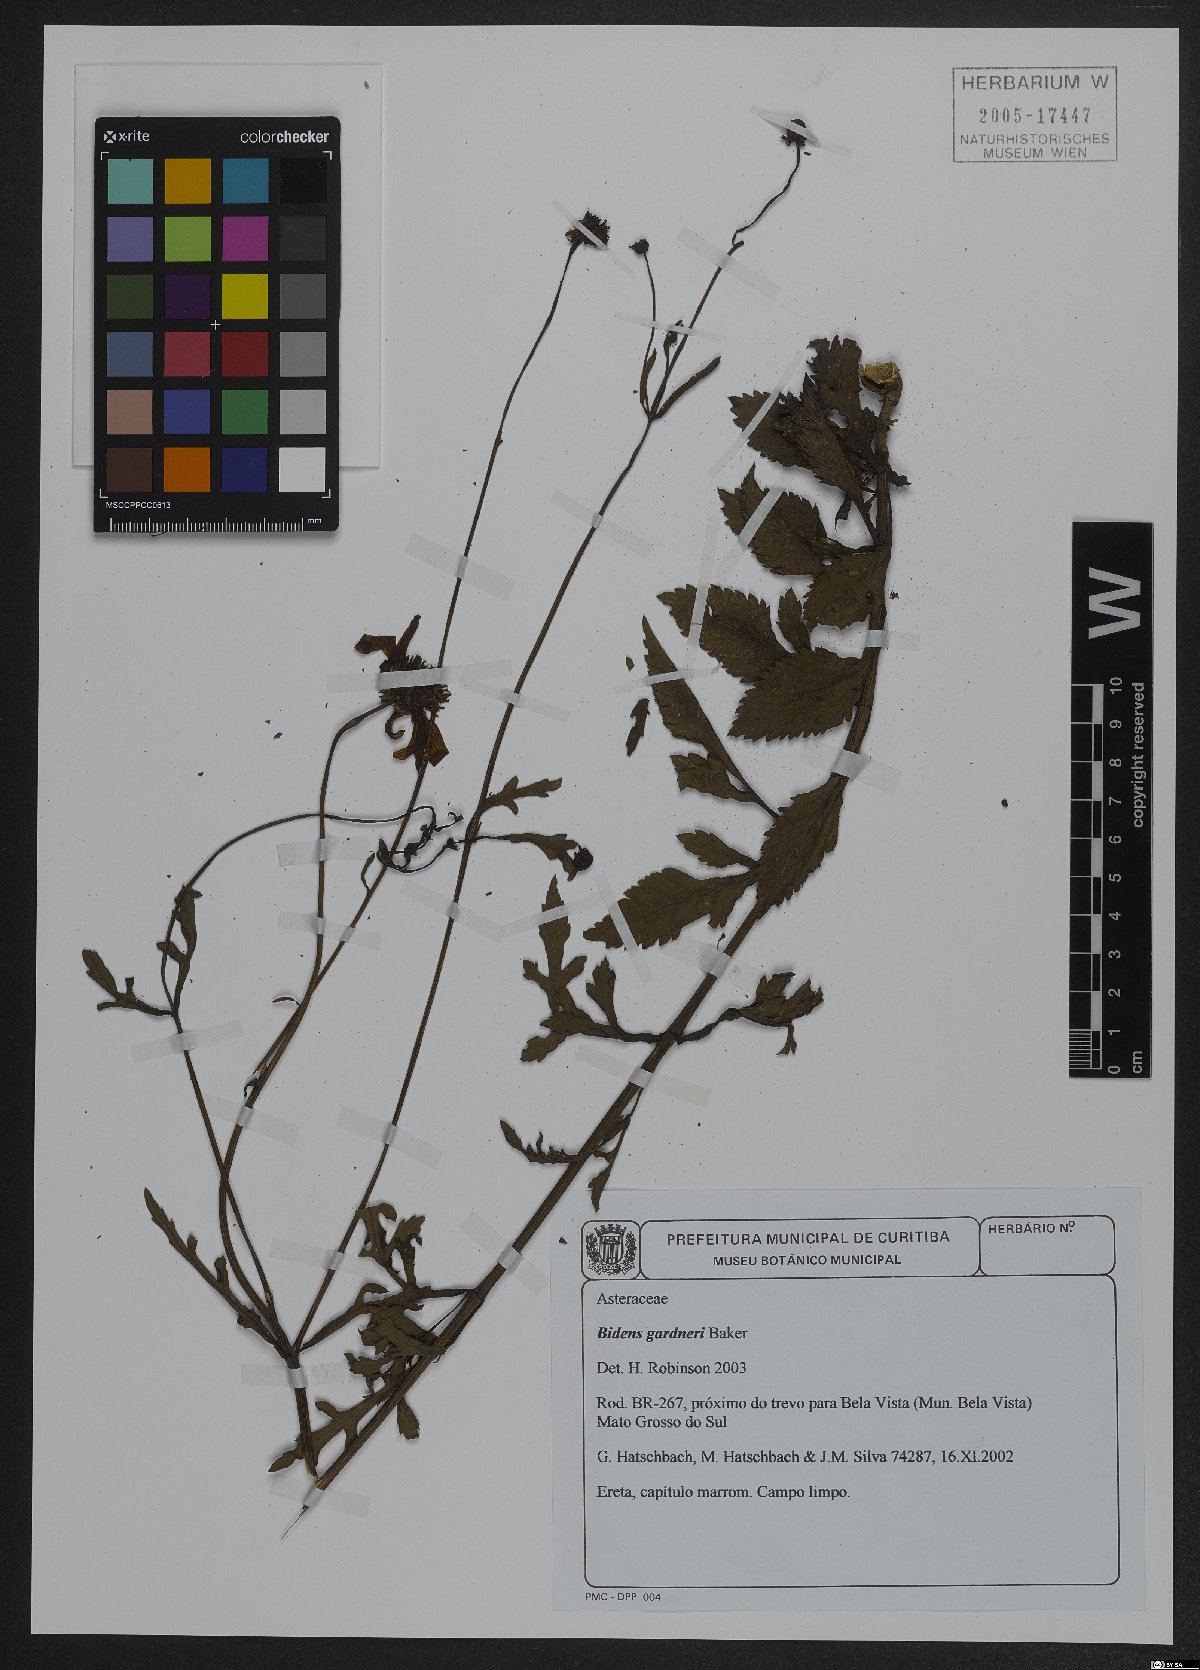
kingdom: Plantae
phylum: Tracheophyta
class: Magnoliopsida
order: Asterales
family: Asteraceae
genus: Bidens
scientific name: Bidens gardneri
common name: Ridge beggartick
